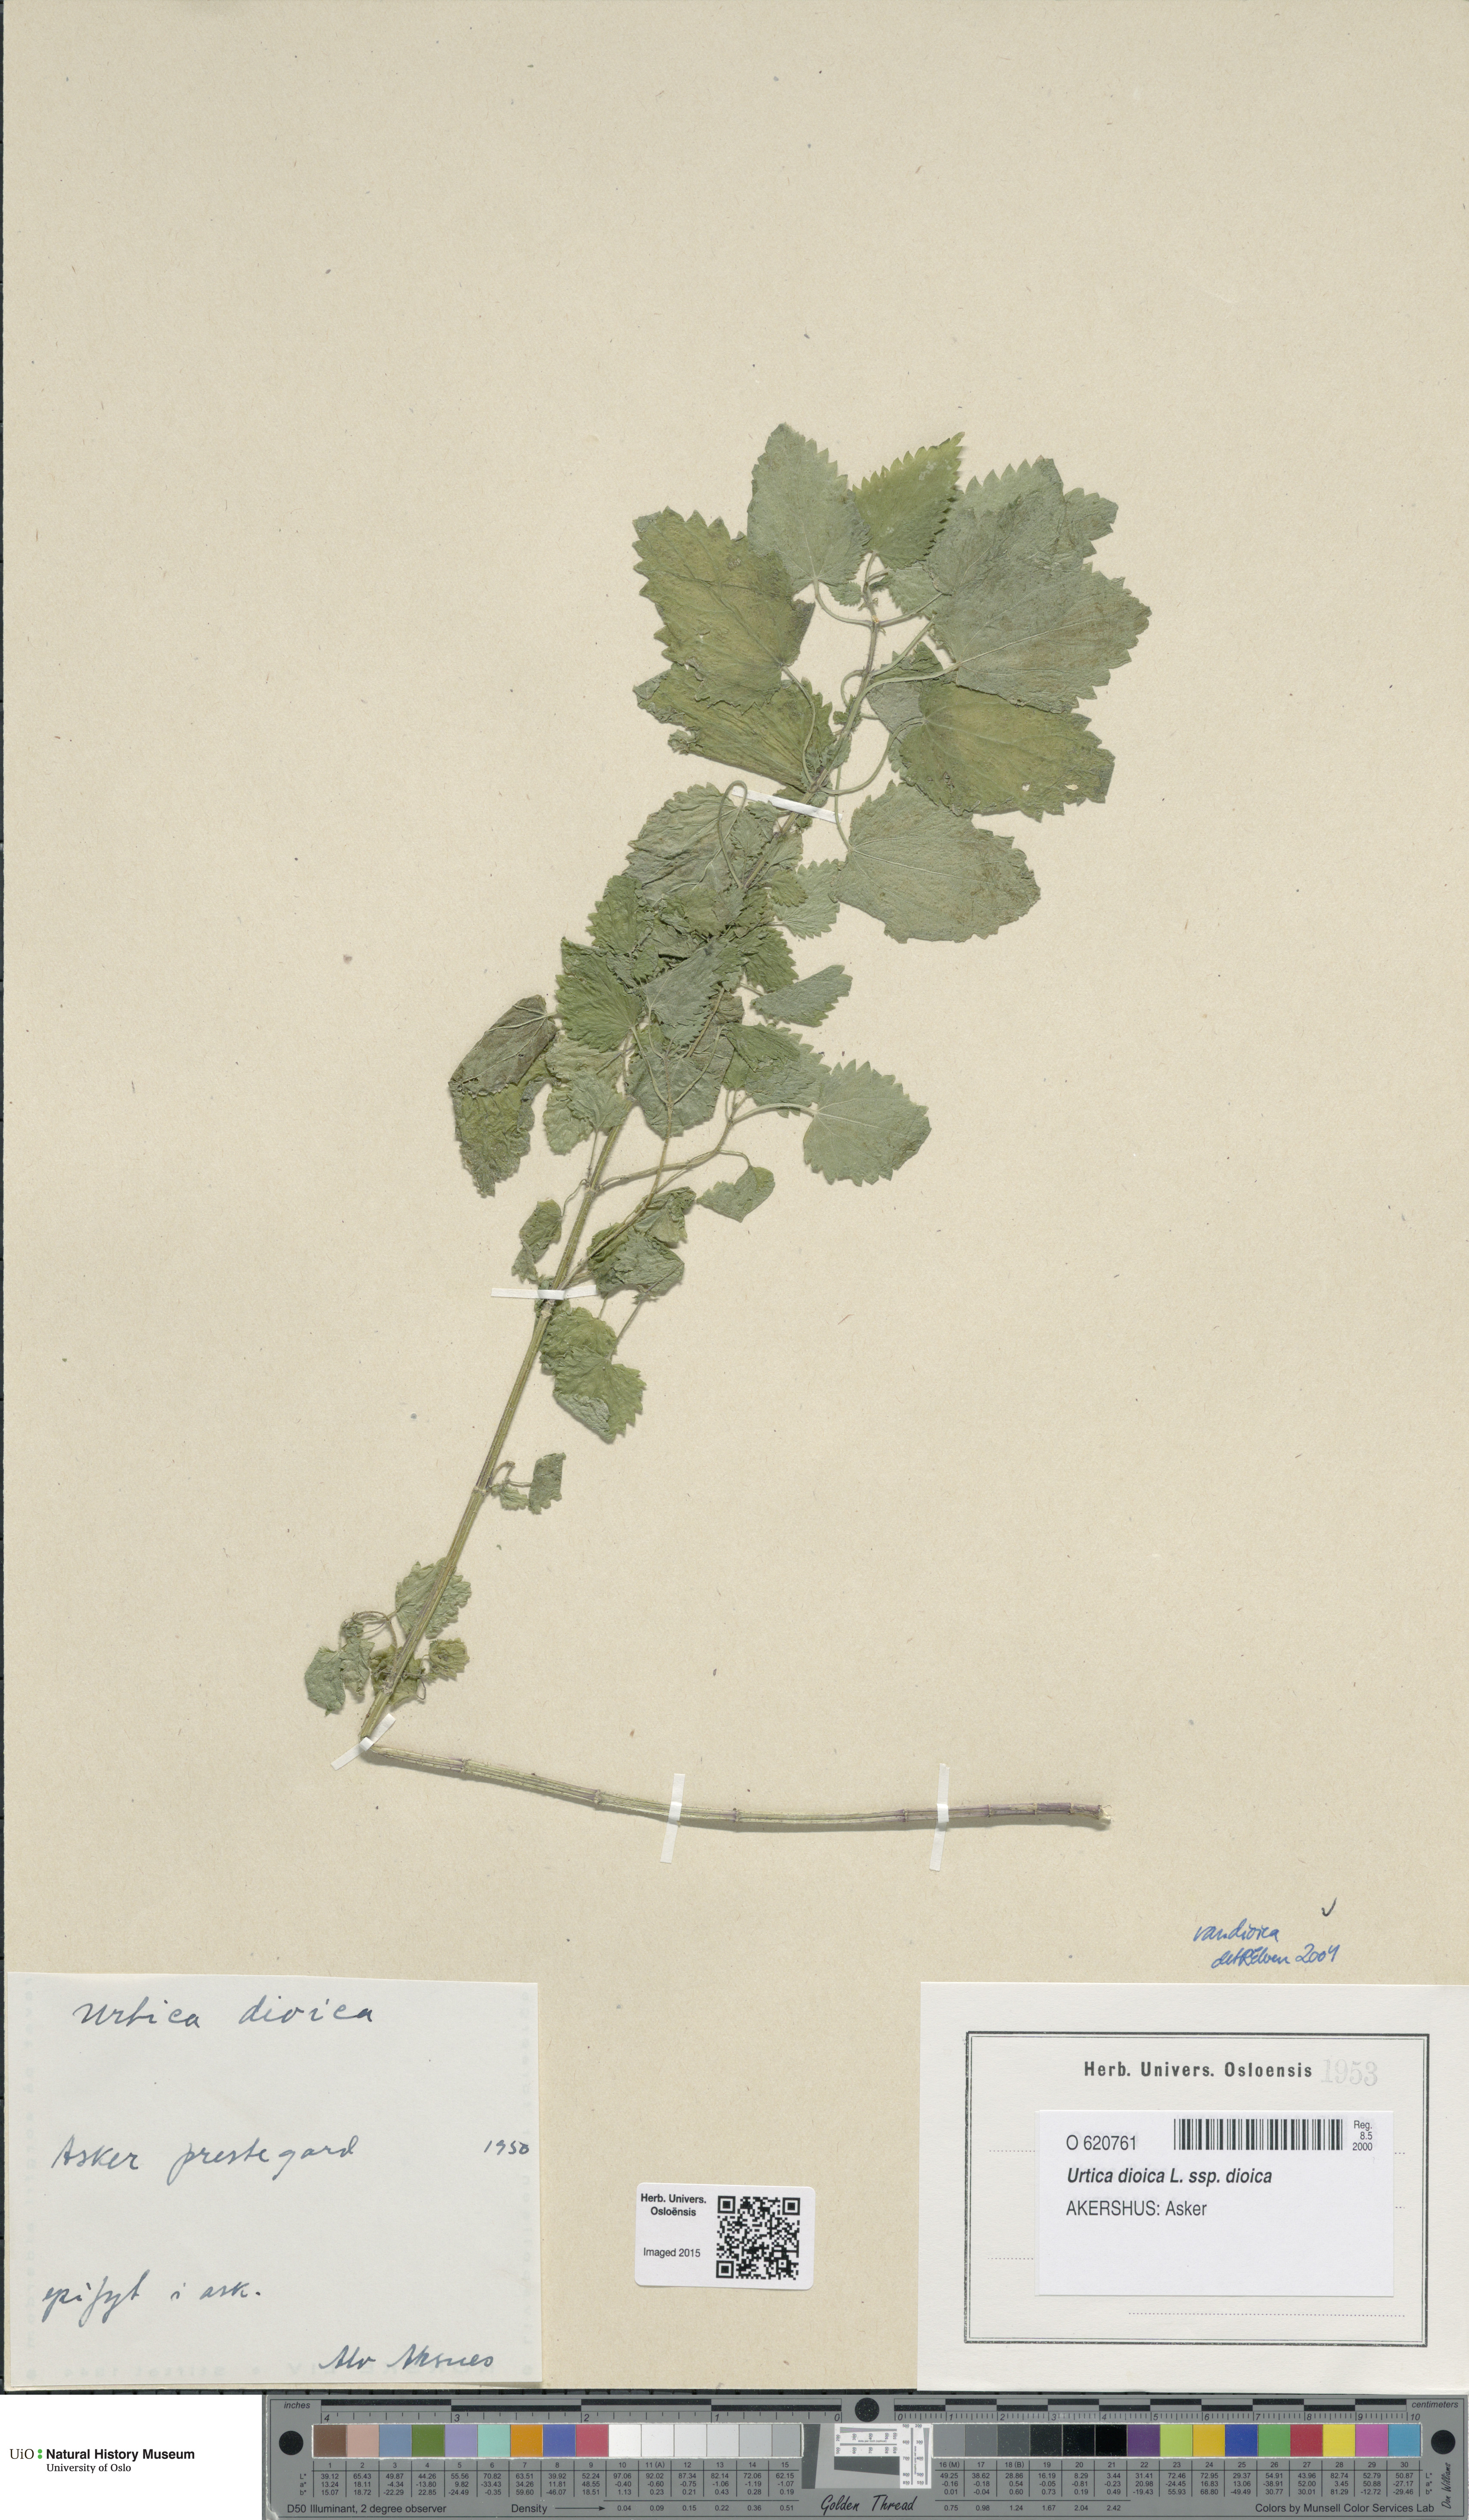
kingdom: Plantae
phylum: Tracheophyta
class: Magnoliopsida
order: Rosales
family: Urticaceae
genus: Urtica
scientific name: Urtica dioica
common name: Common nettle
